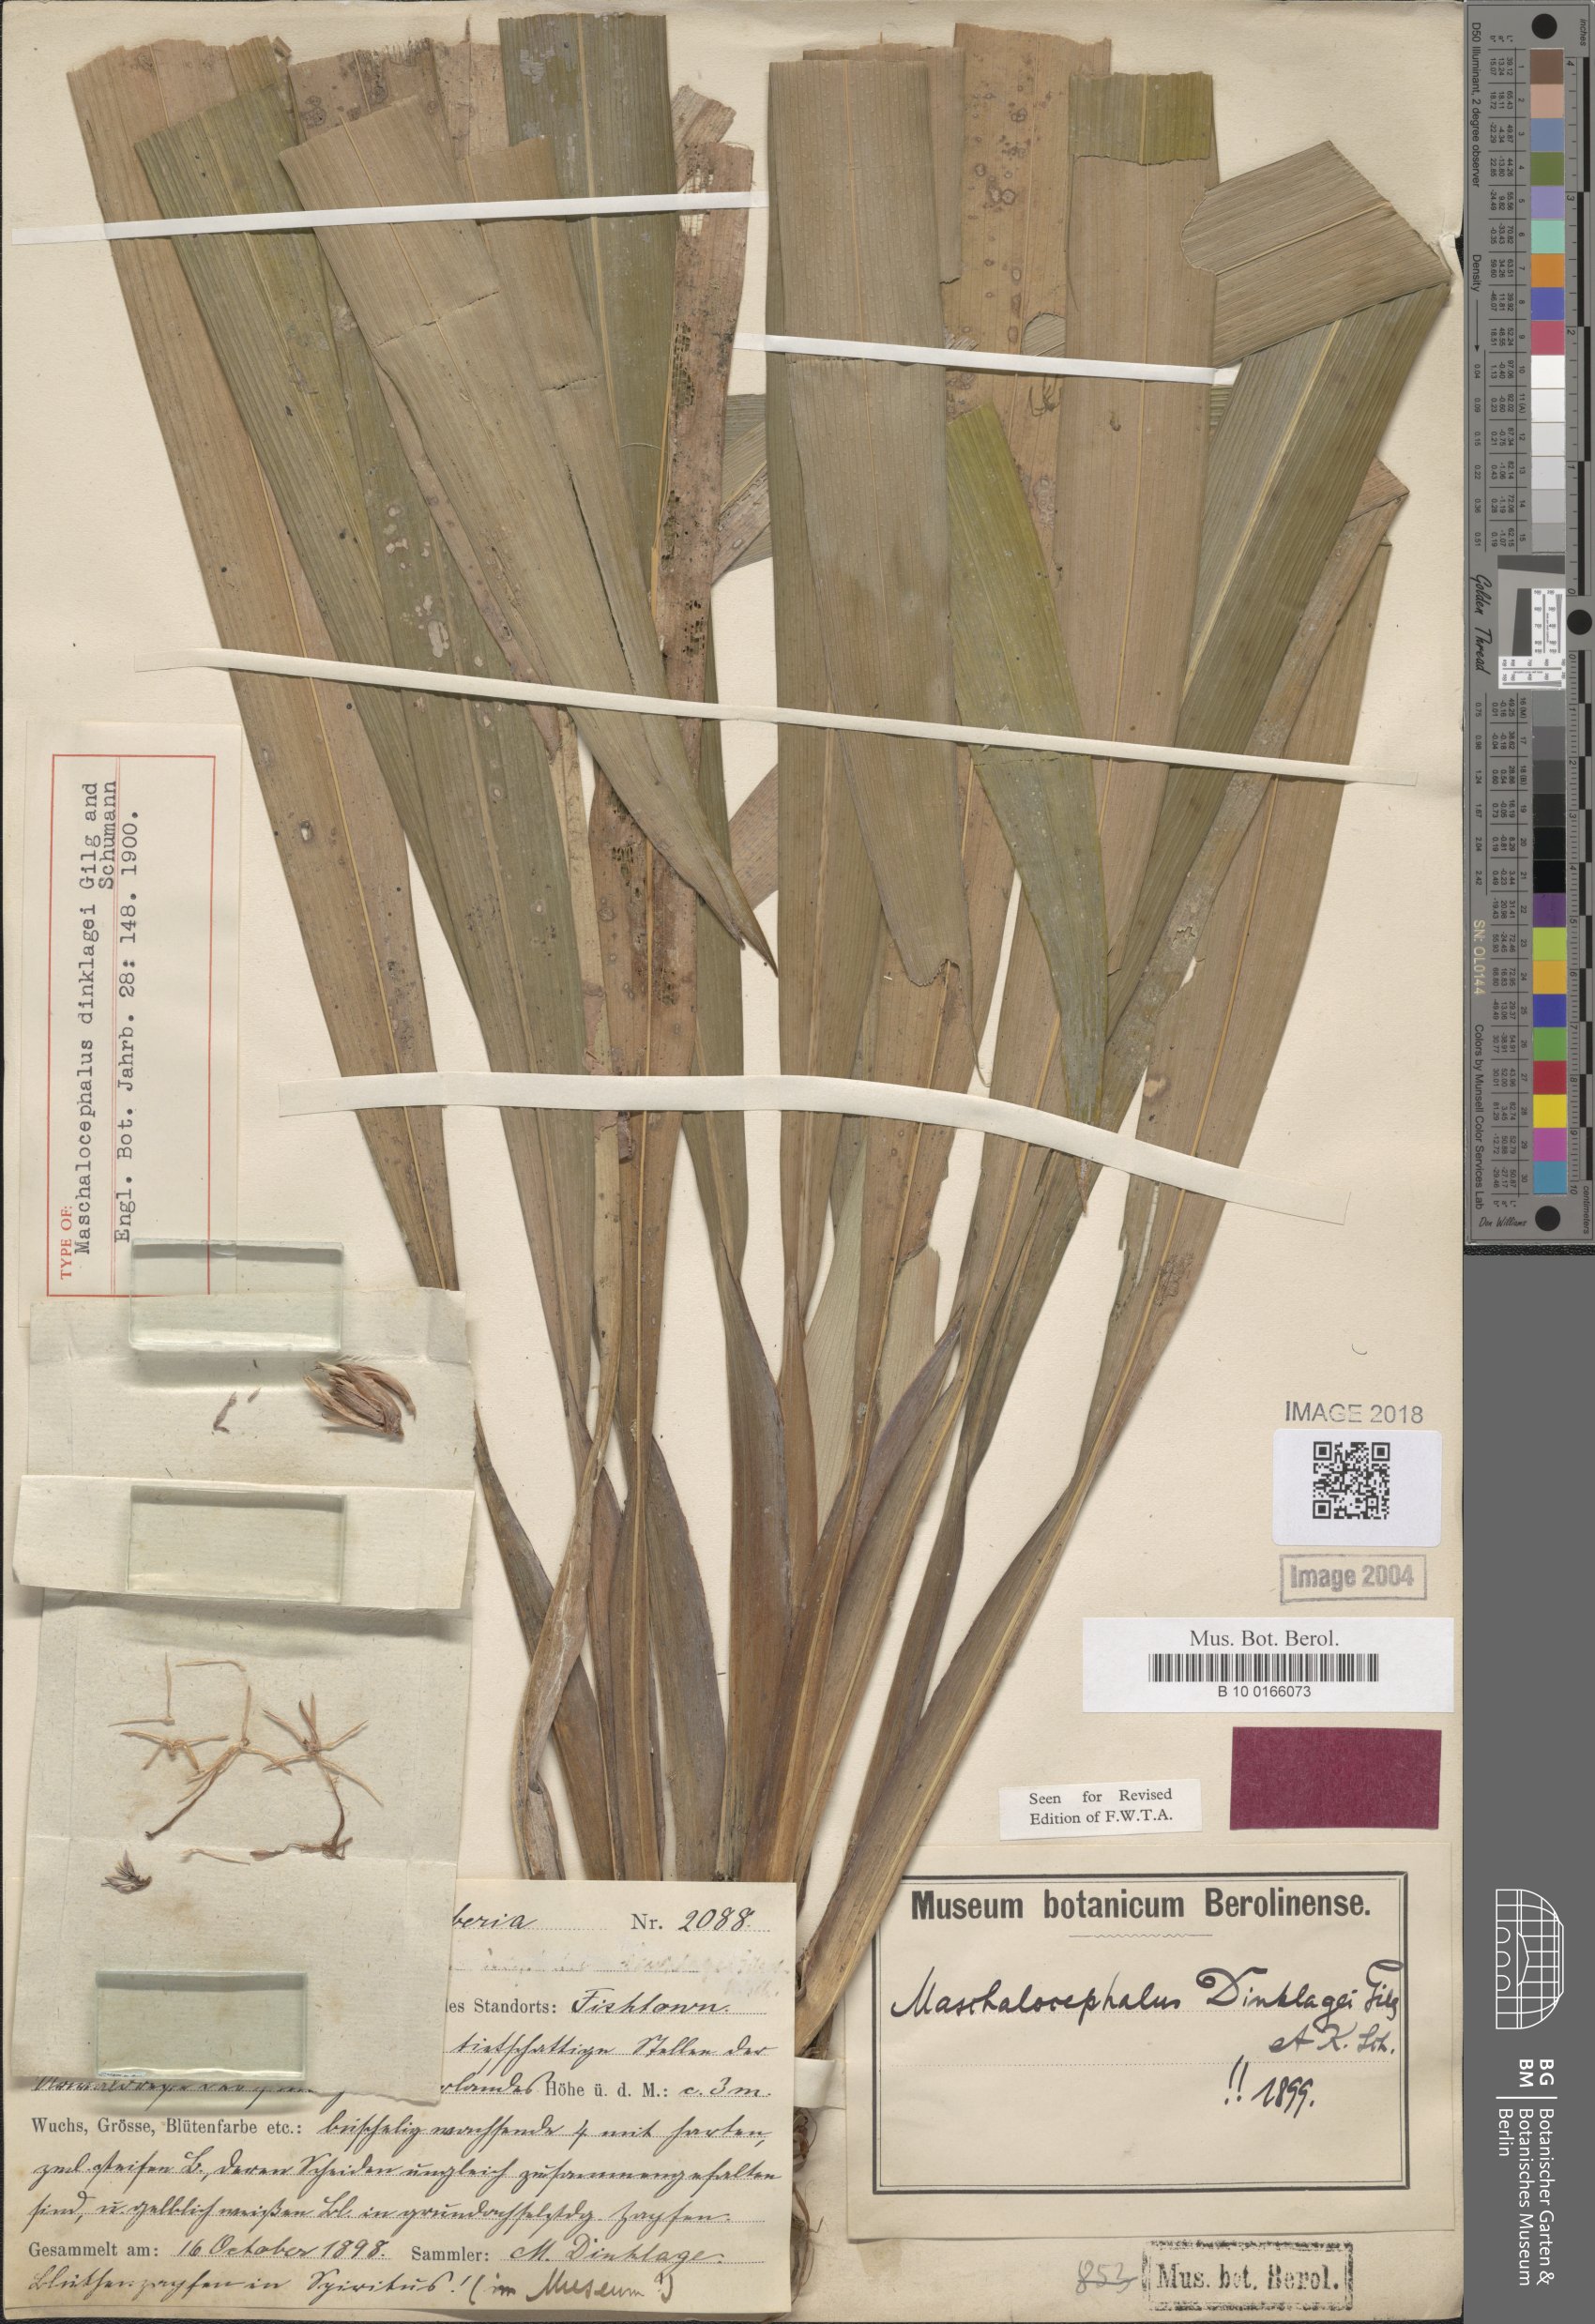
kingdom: Plantae
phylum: Tracheophyta
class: Liliopsida
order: Poales
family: Rapateaceae
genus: Maschalocephalus
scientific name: Maschalocephalus dinklagei
